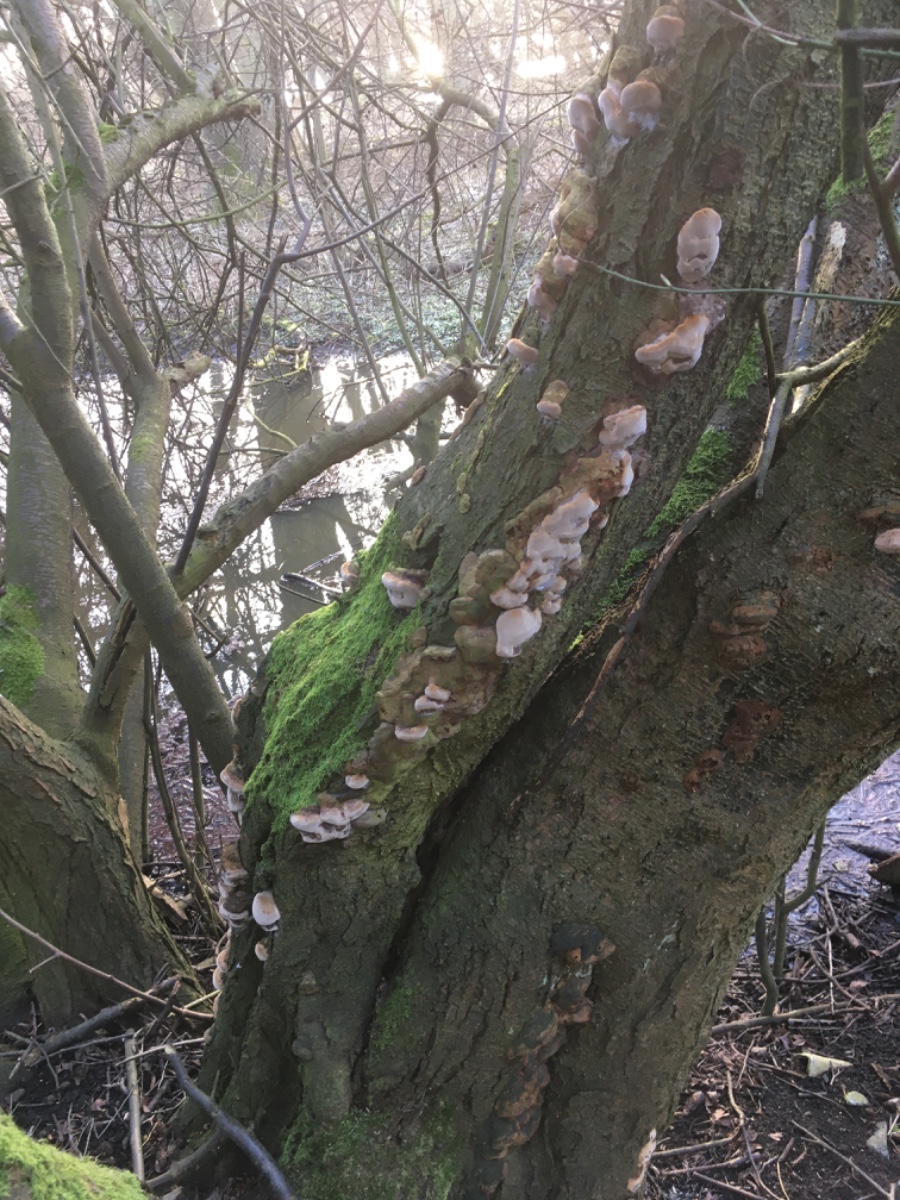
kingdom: Fungi
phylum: Basidiomycota
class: Agaricomycetes
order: Hymenochaetales
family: Hymenochaetaceae
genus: Phellinus
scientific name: Phellinus pomaceus
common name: blomme-ildporesvamp
